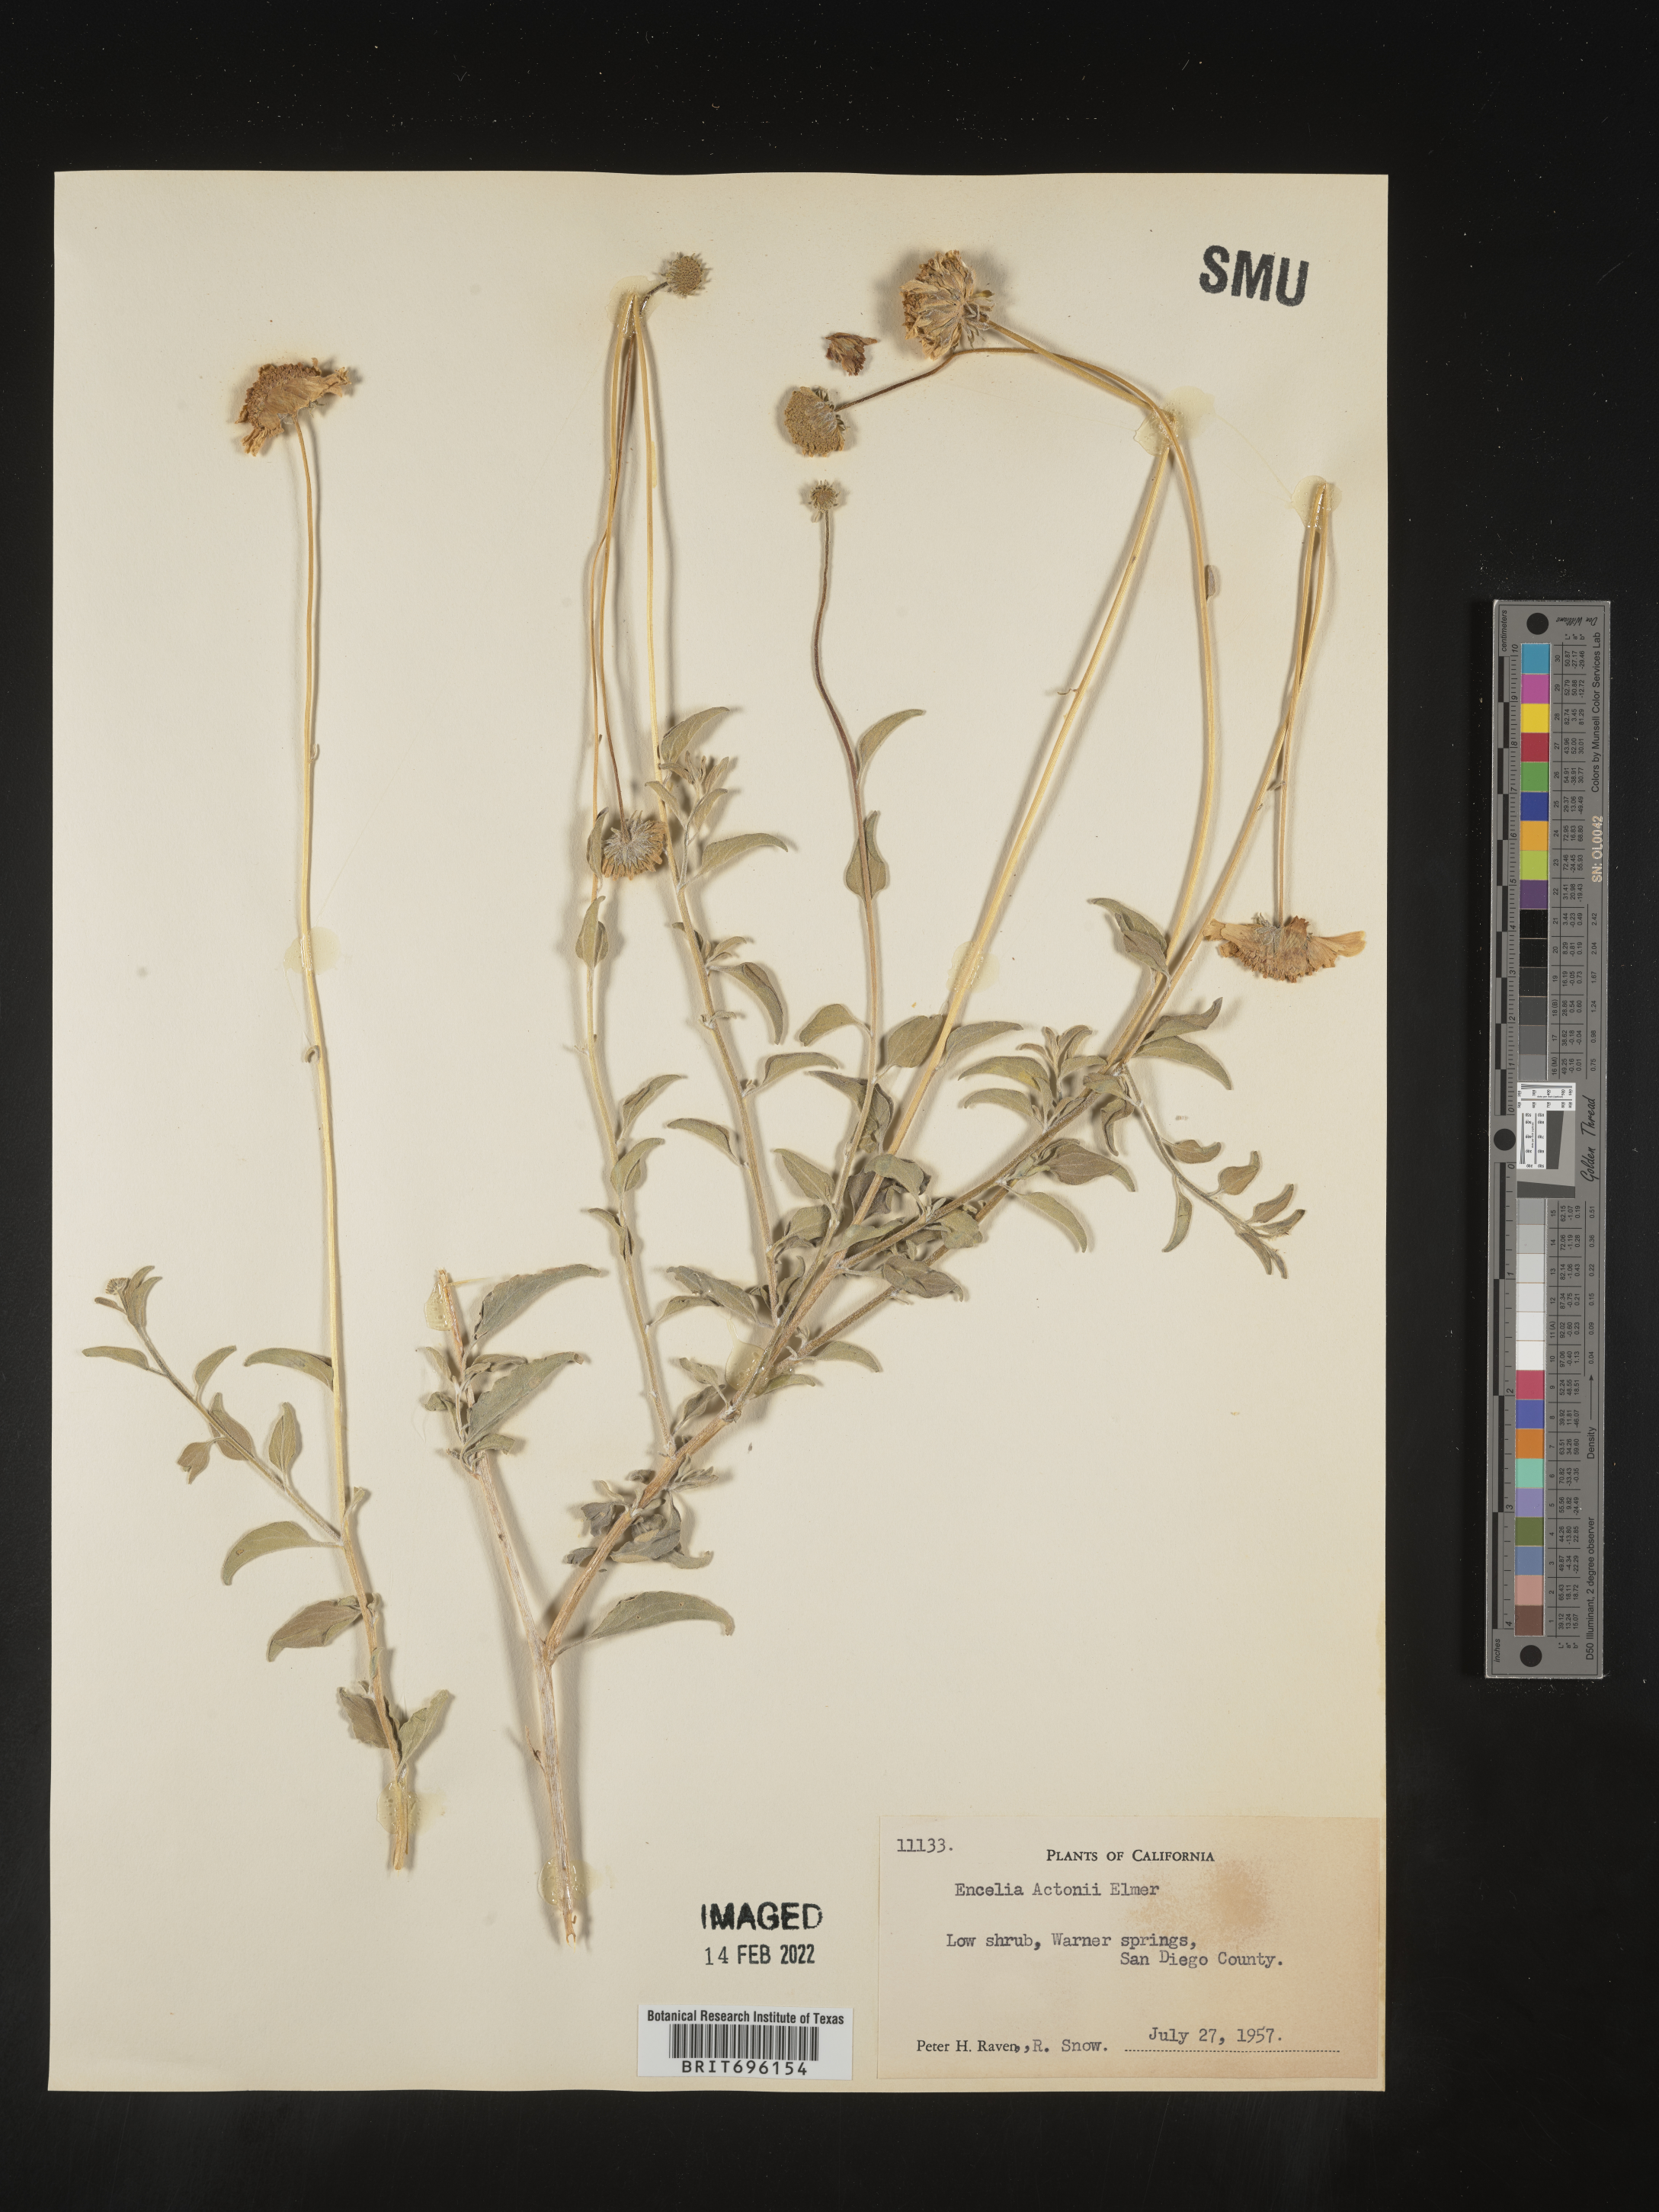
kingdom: Plantae
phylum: Tracheophyta
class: Magnoliopsida
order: Asterales
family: Asteraceae
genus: Encelia
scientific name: Encelia actoni
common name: Acton encelia
